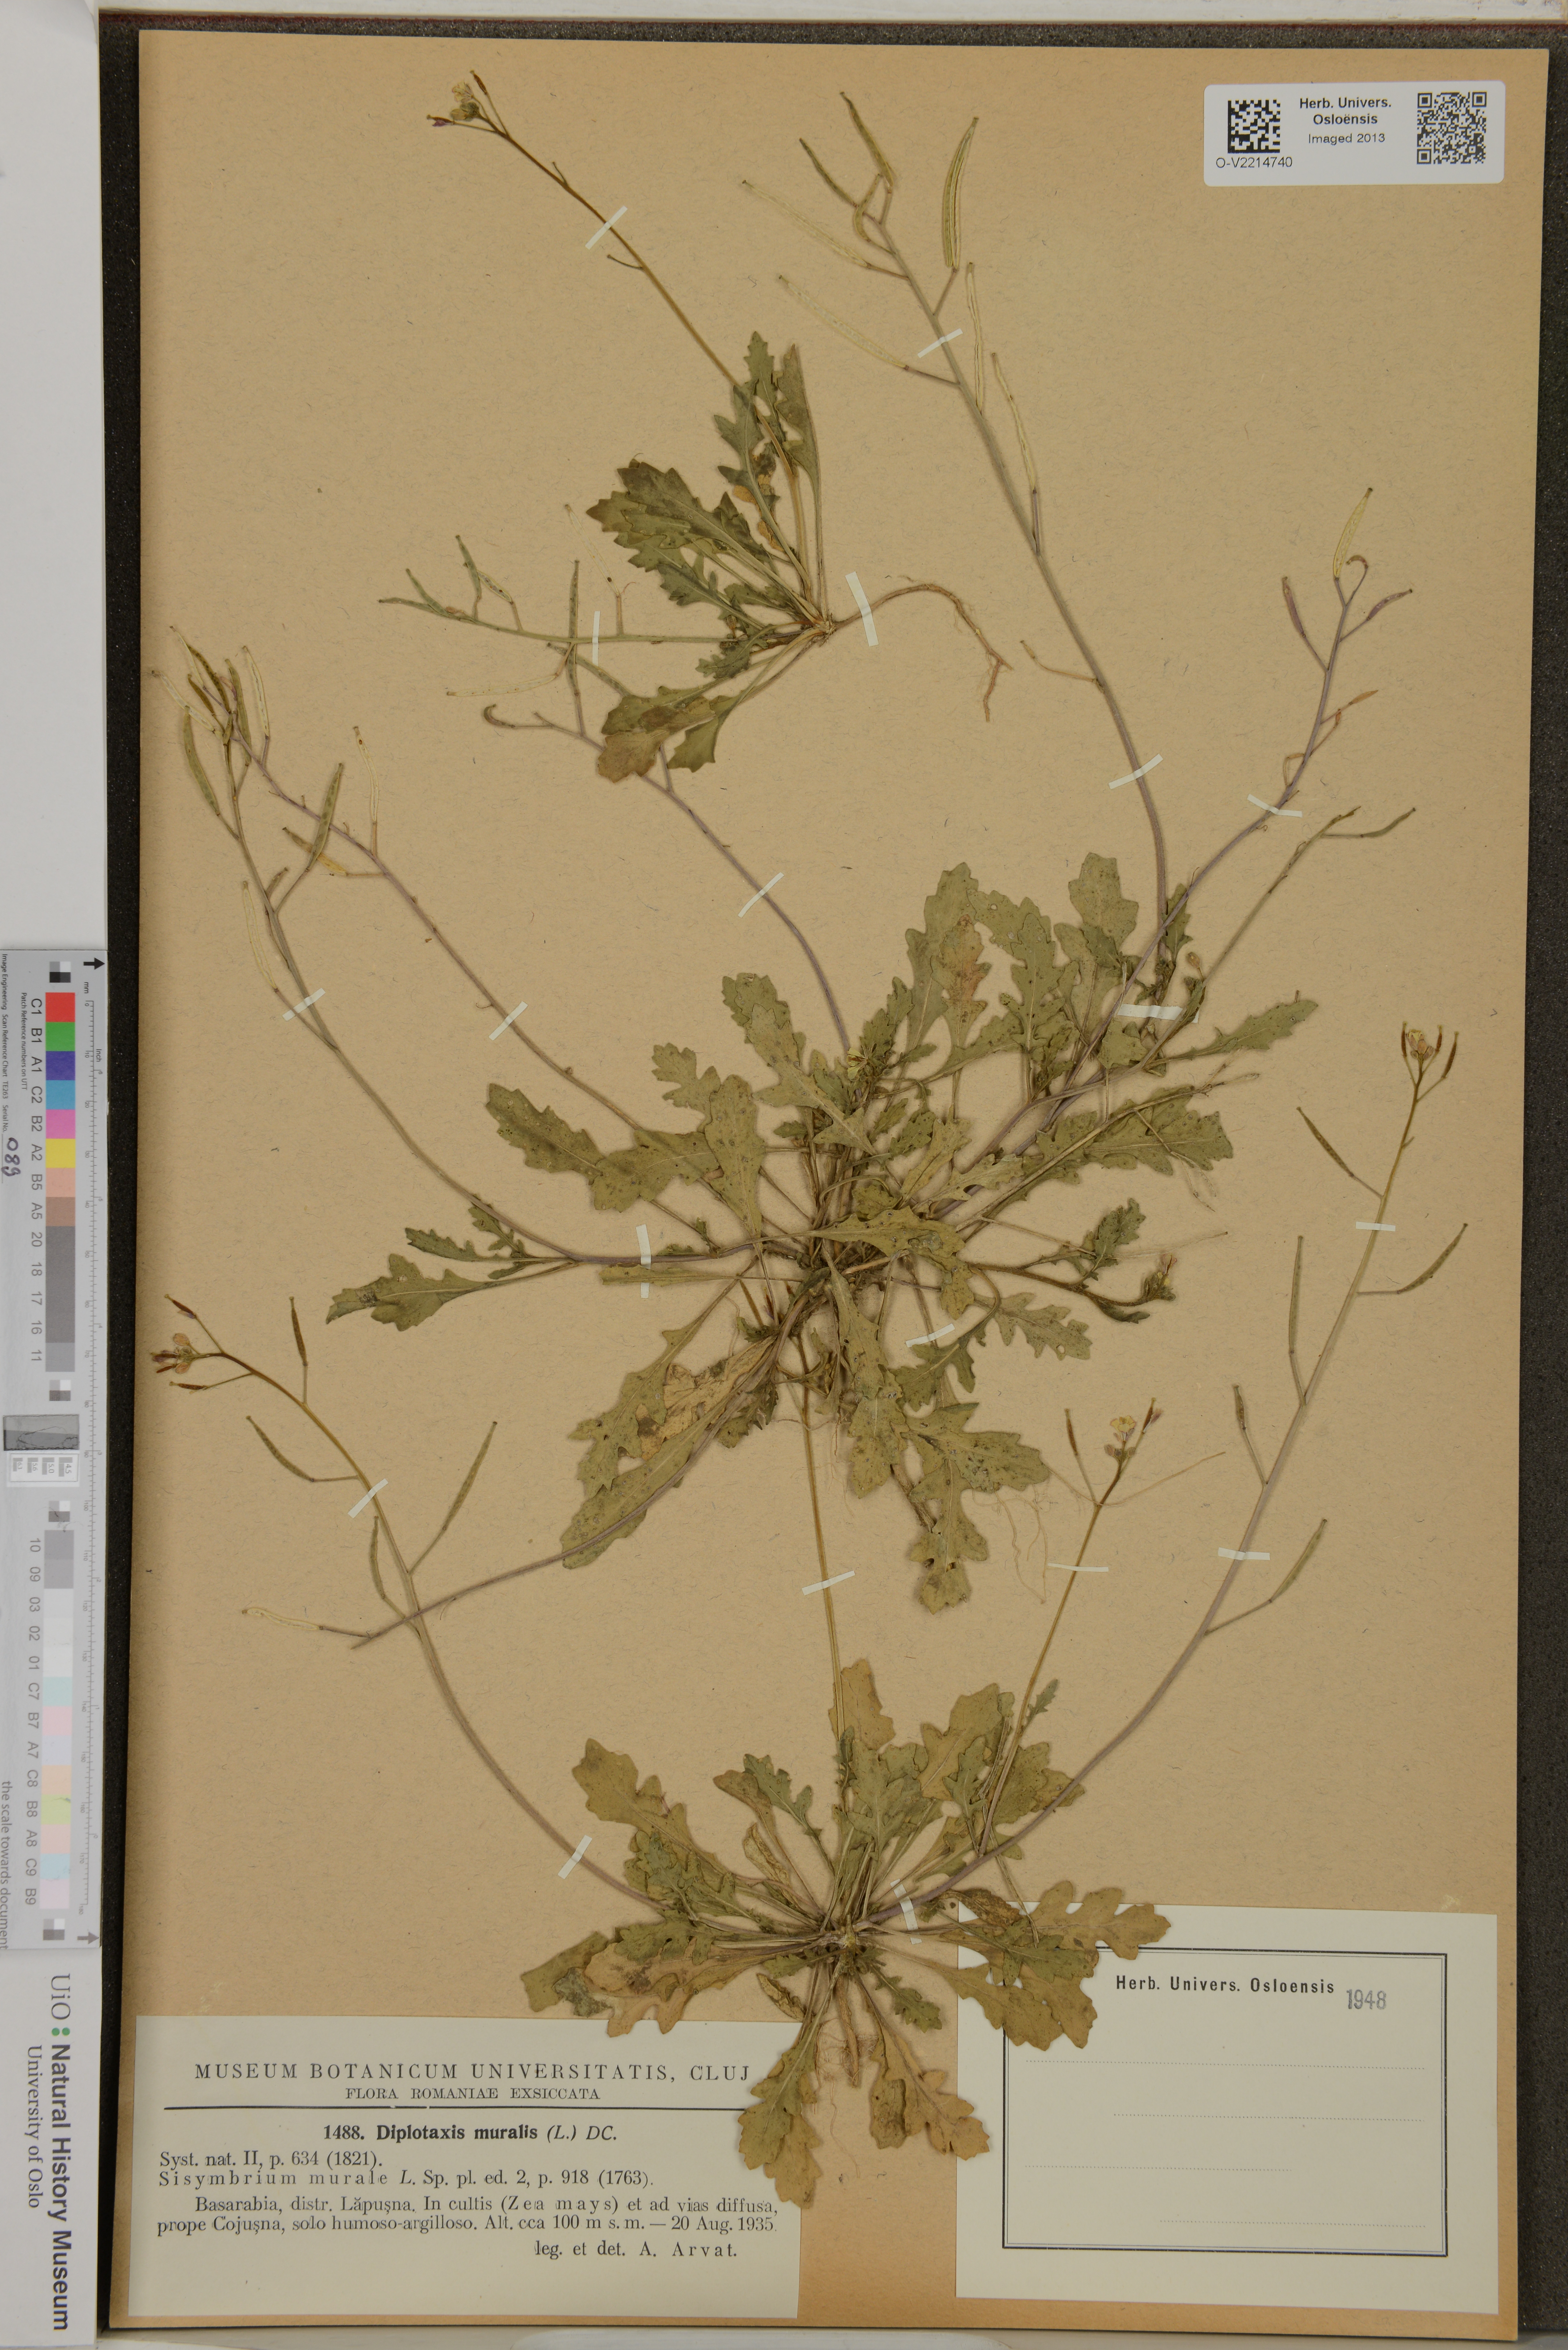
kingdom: Plantae
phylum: Tracheophyta
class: Magnoliopsida
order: Brassicales
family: Brassicaceae
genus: Diplotaxis
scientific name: Diplotaxis muralis
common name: Annual wall-rocket
